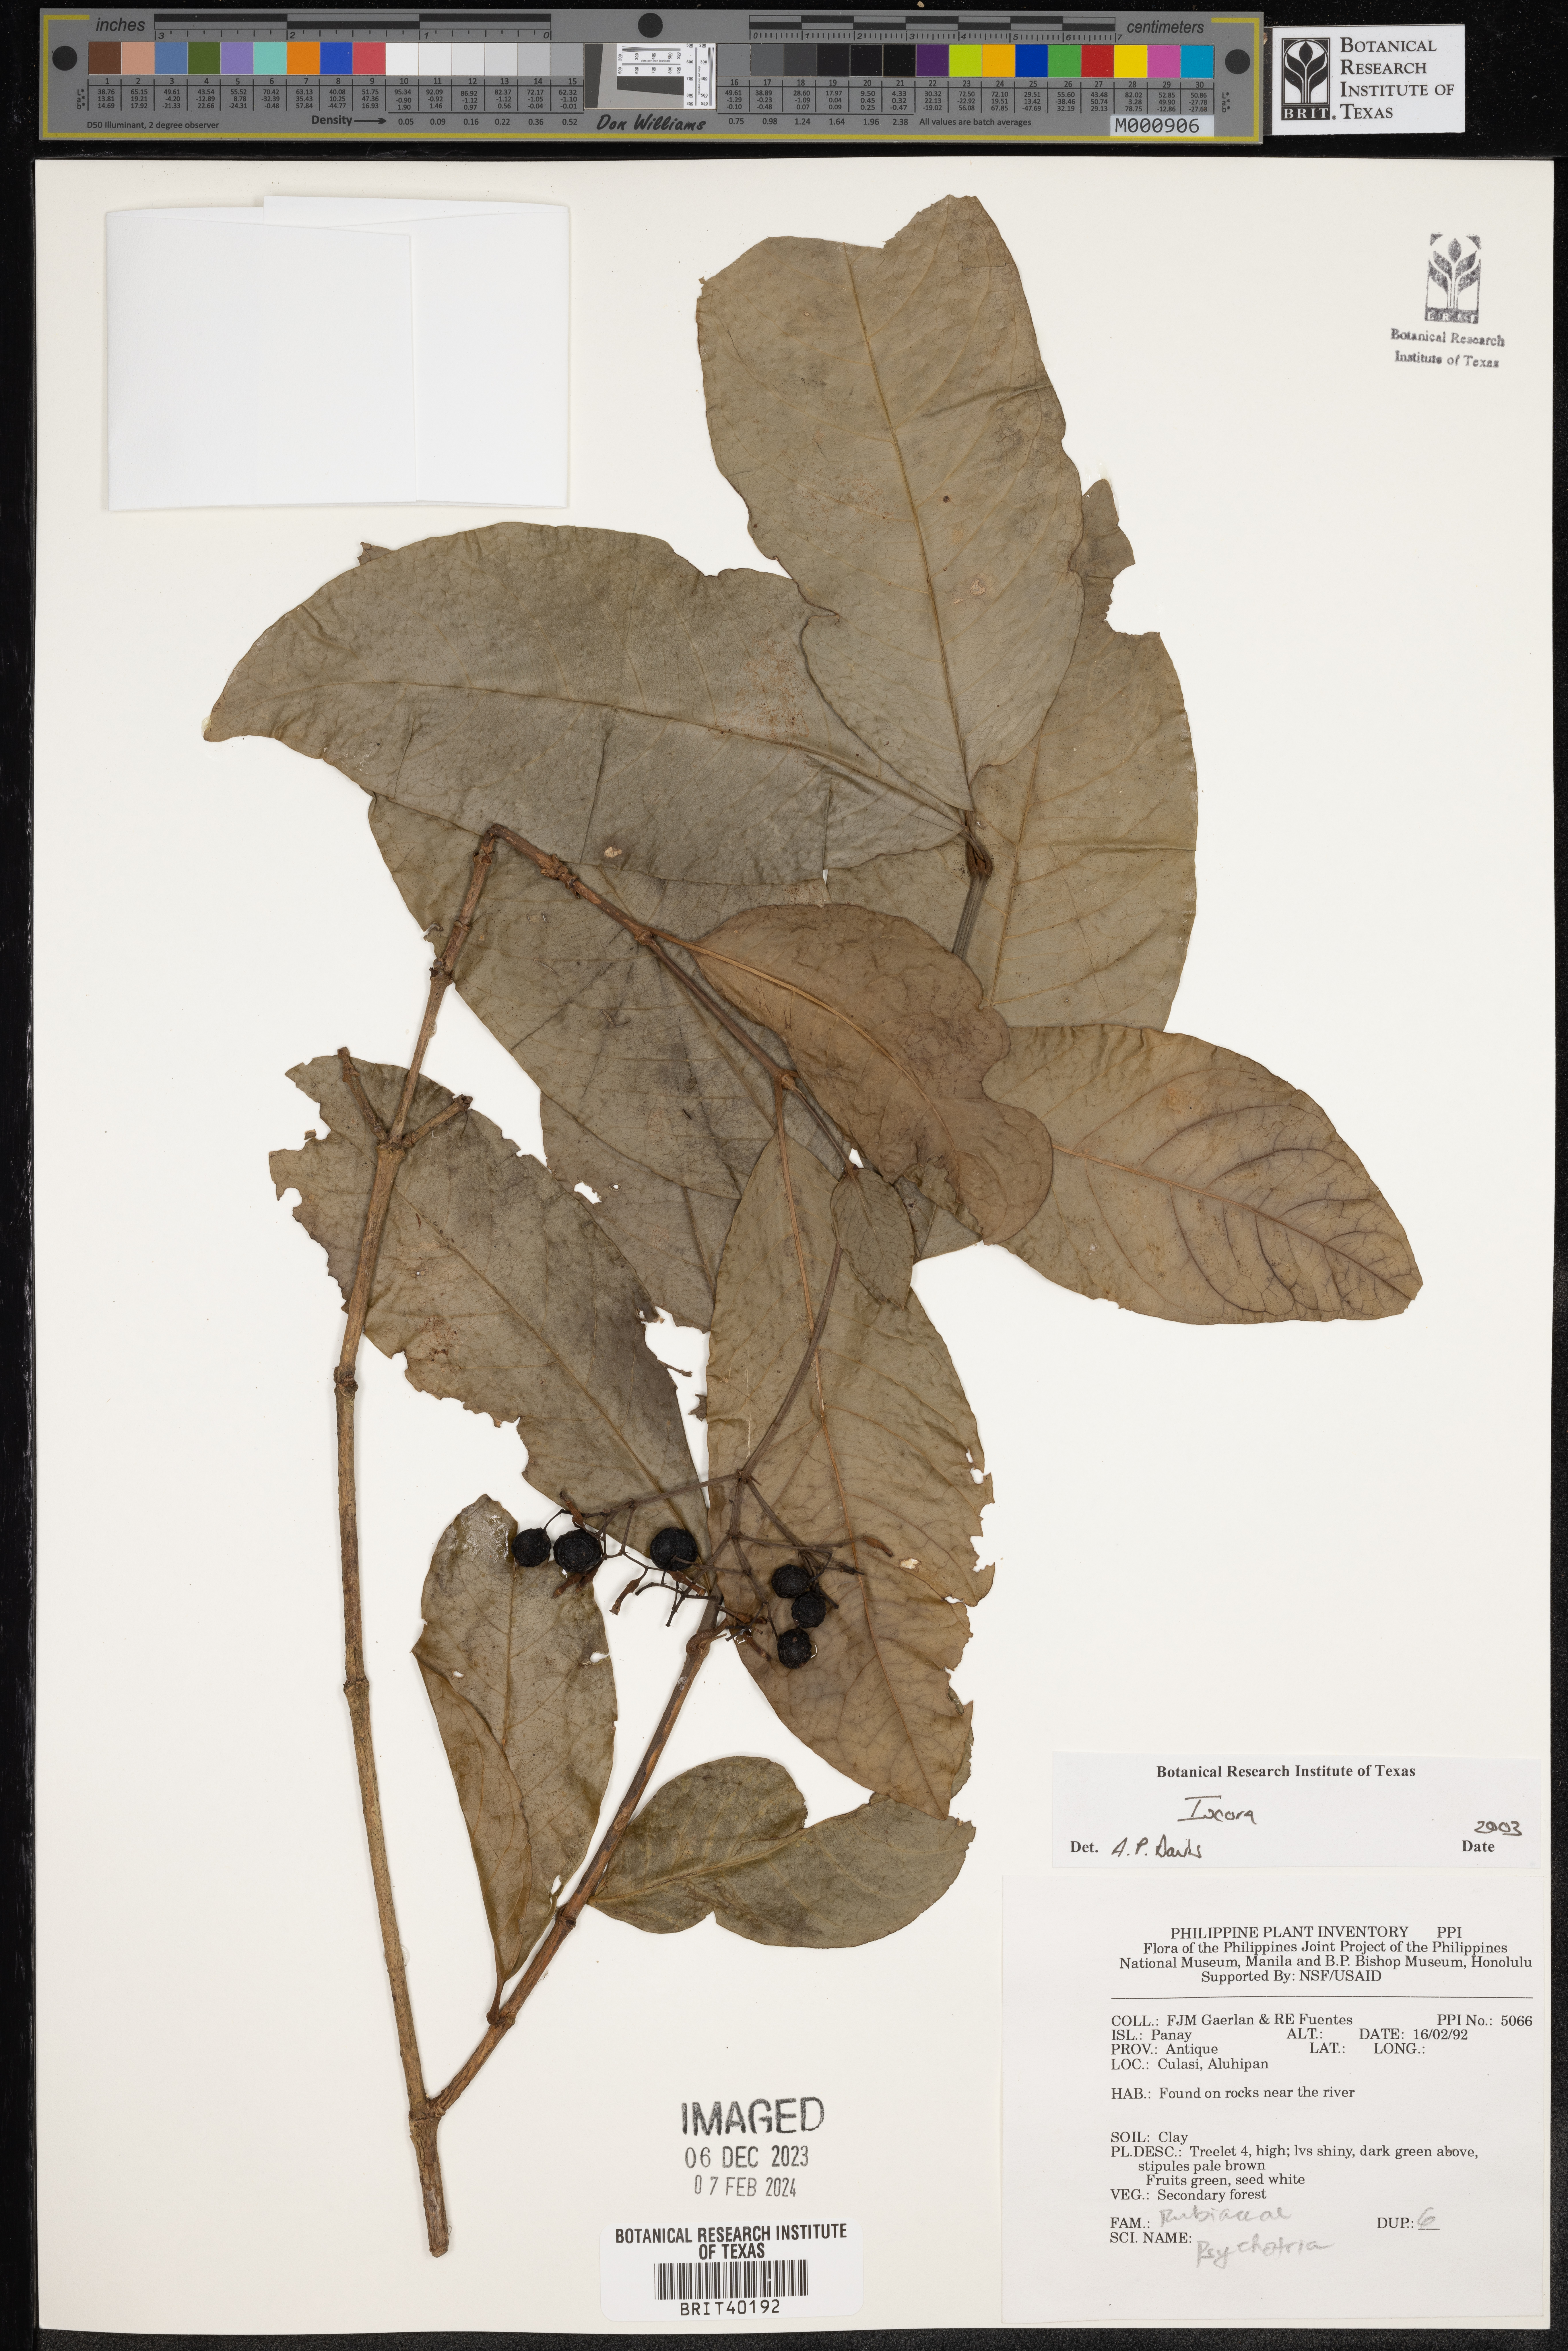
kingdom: Plantae
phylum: Tracheophyta
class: Magnoliopsida
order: Gentianales
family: Rubiaceae
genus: Ixora
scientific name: Ixora
